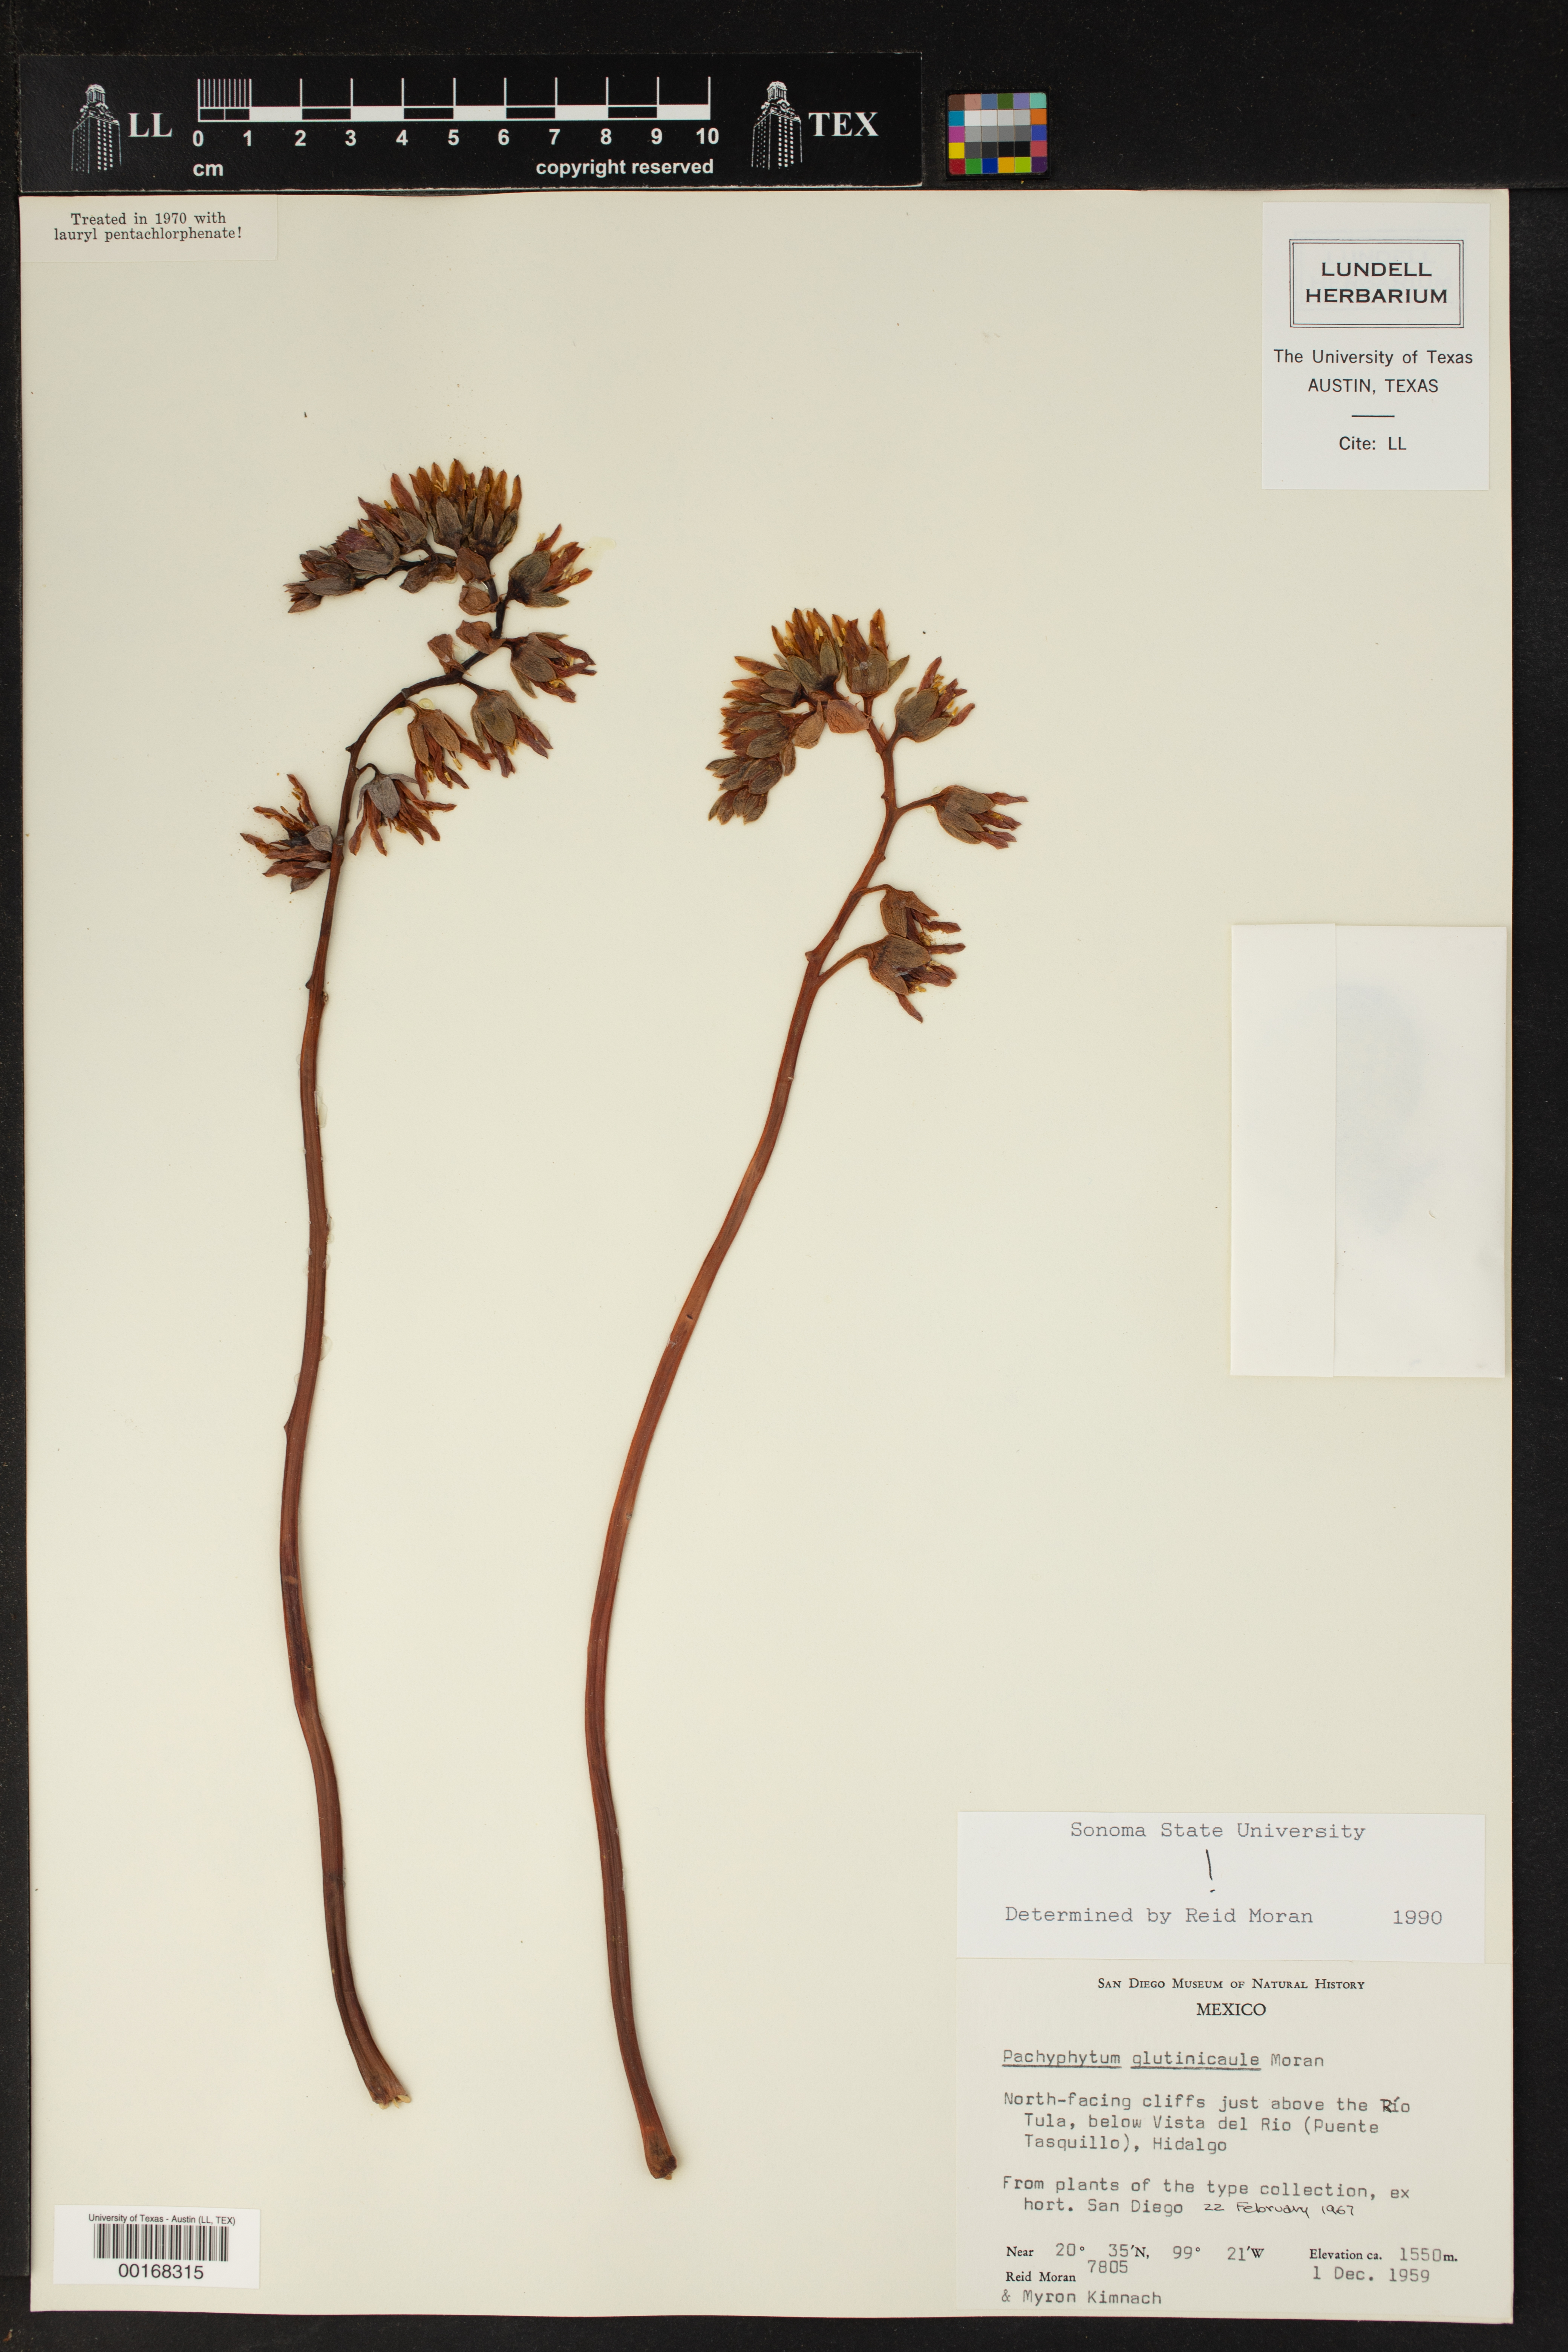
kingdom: Plantae
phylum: Tracheophyta
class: Magnoliopsida
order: Saxifragales
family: Crassulaceae
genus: Pachyphytum
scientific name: Pachyphytum glutinicaule
